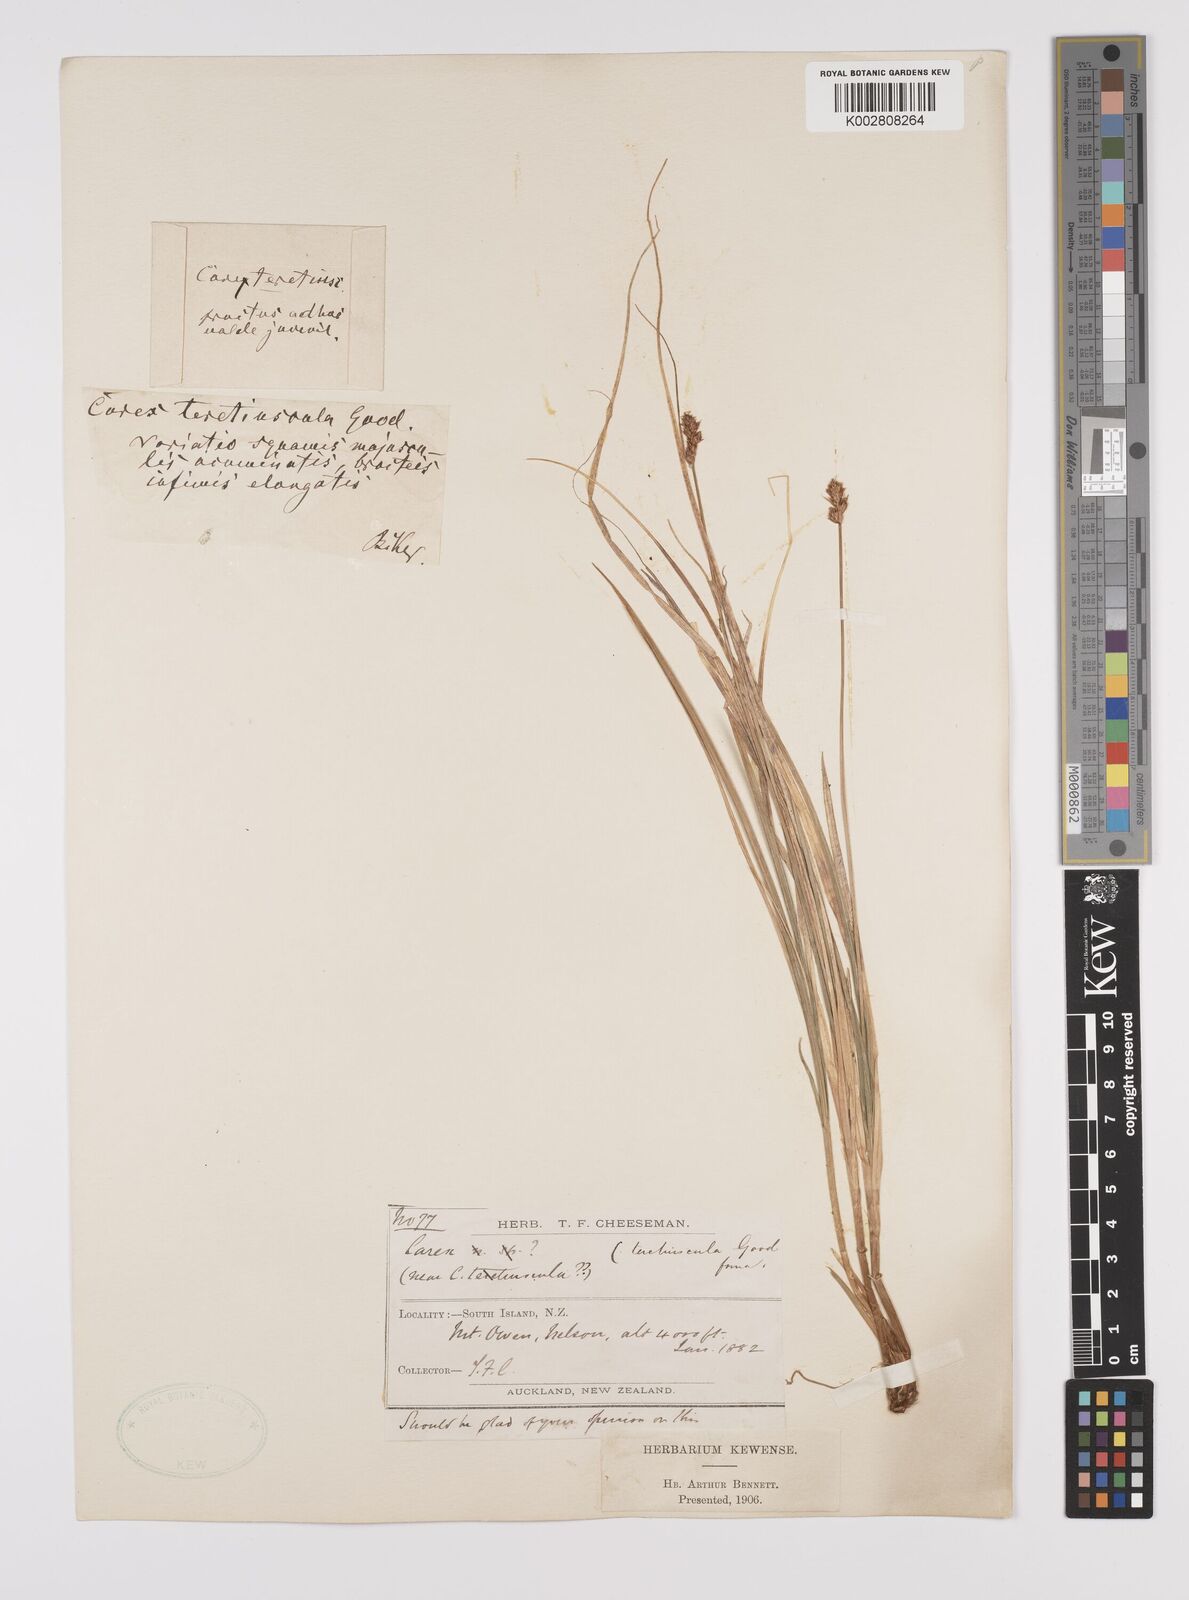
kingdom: Plantae
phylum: Tracheophyta
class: Liliopsida
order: Poales
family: Cyperaceae
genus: Carex
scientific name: Carex divulsa
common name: Grassland sedge
